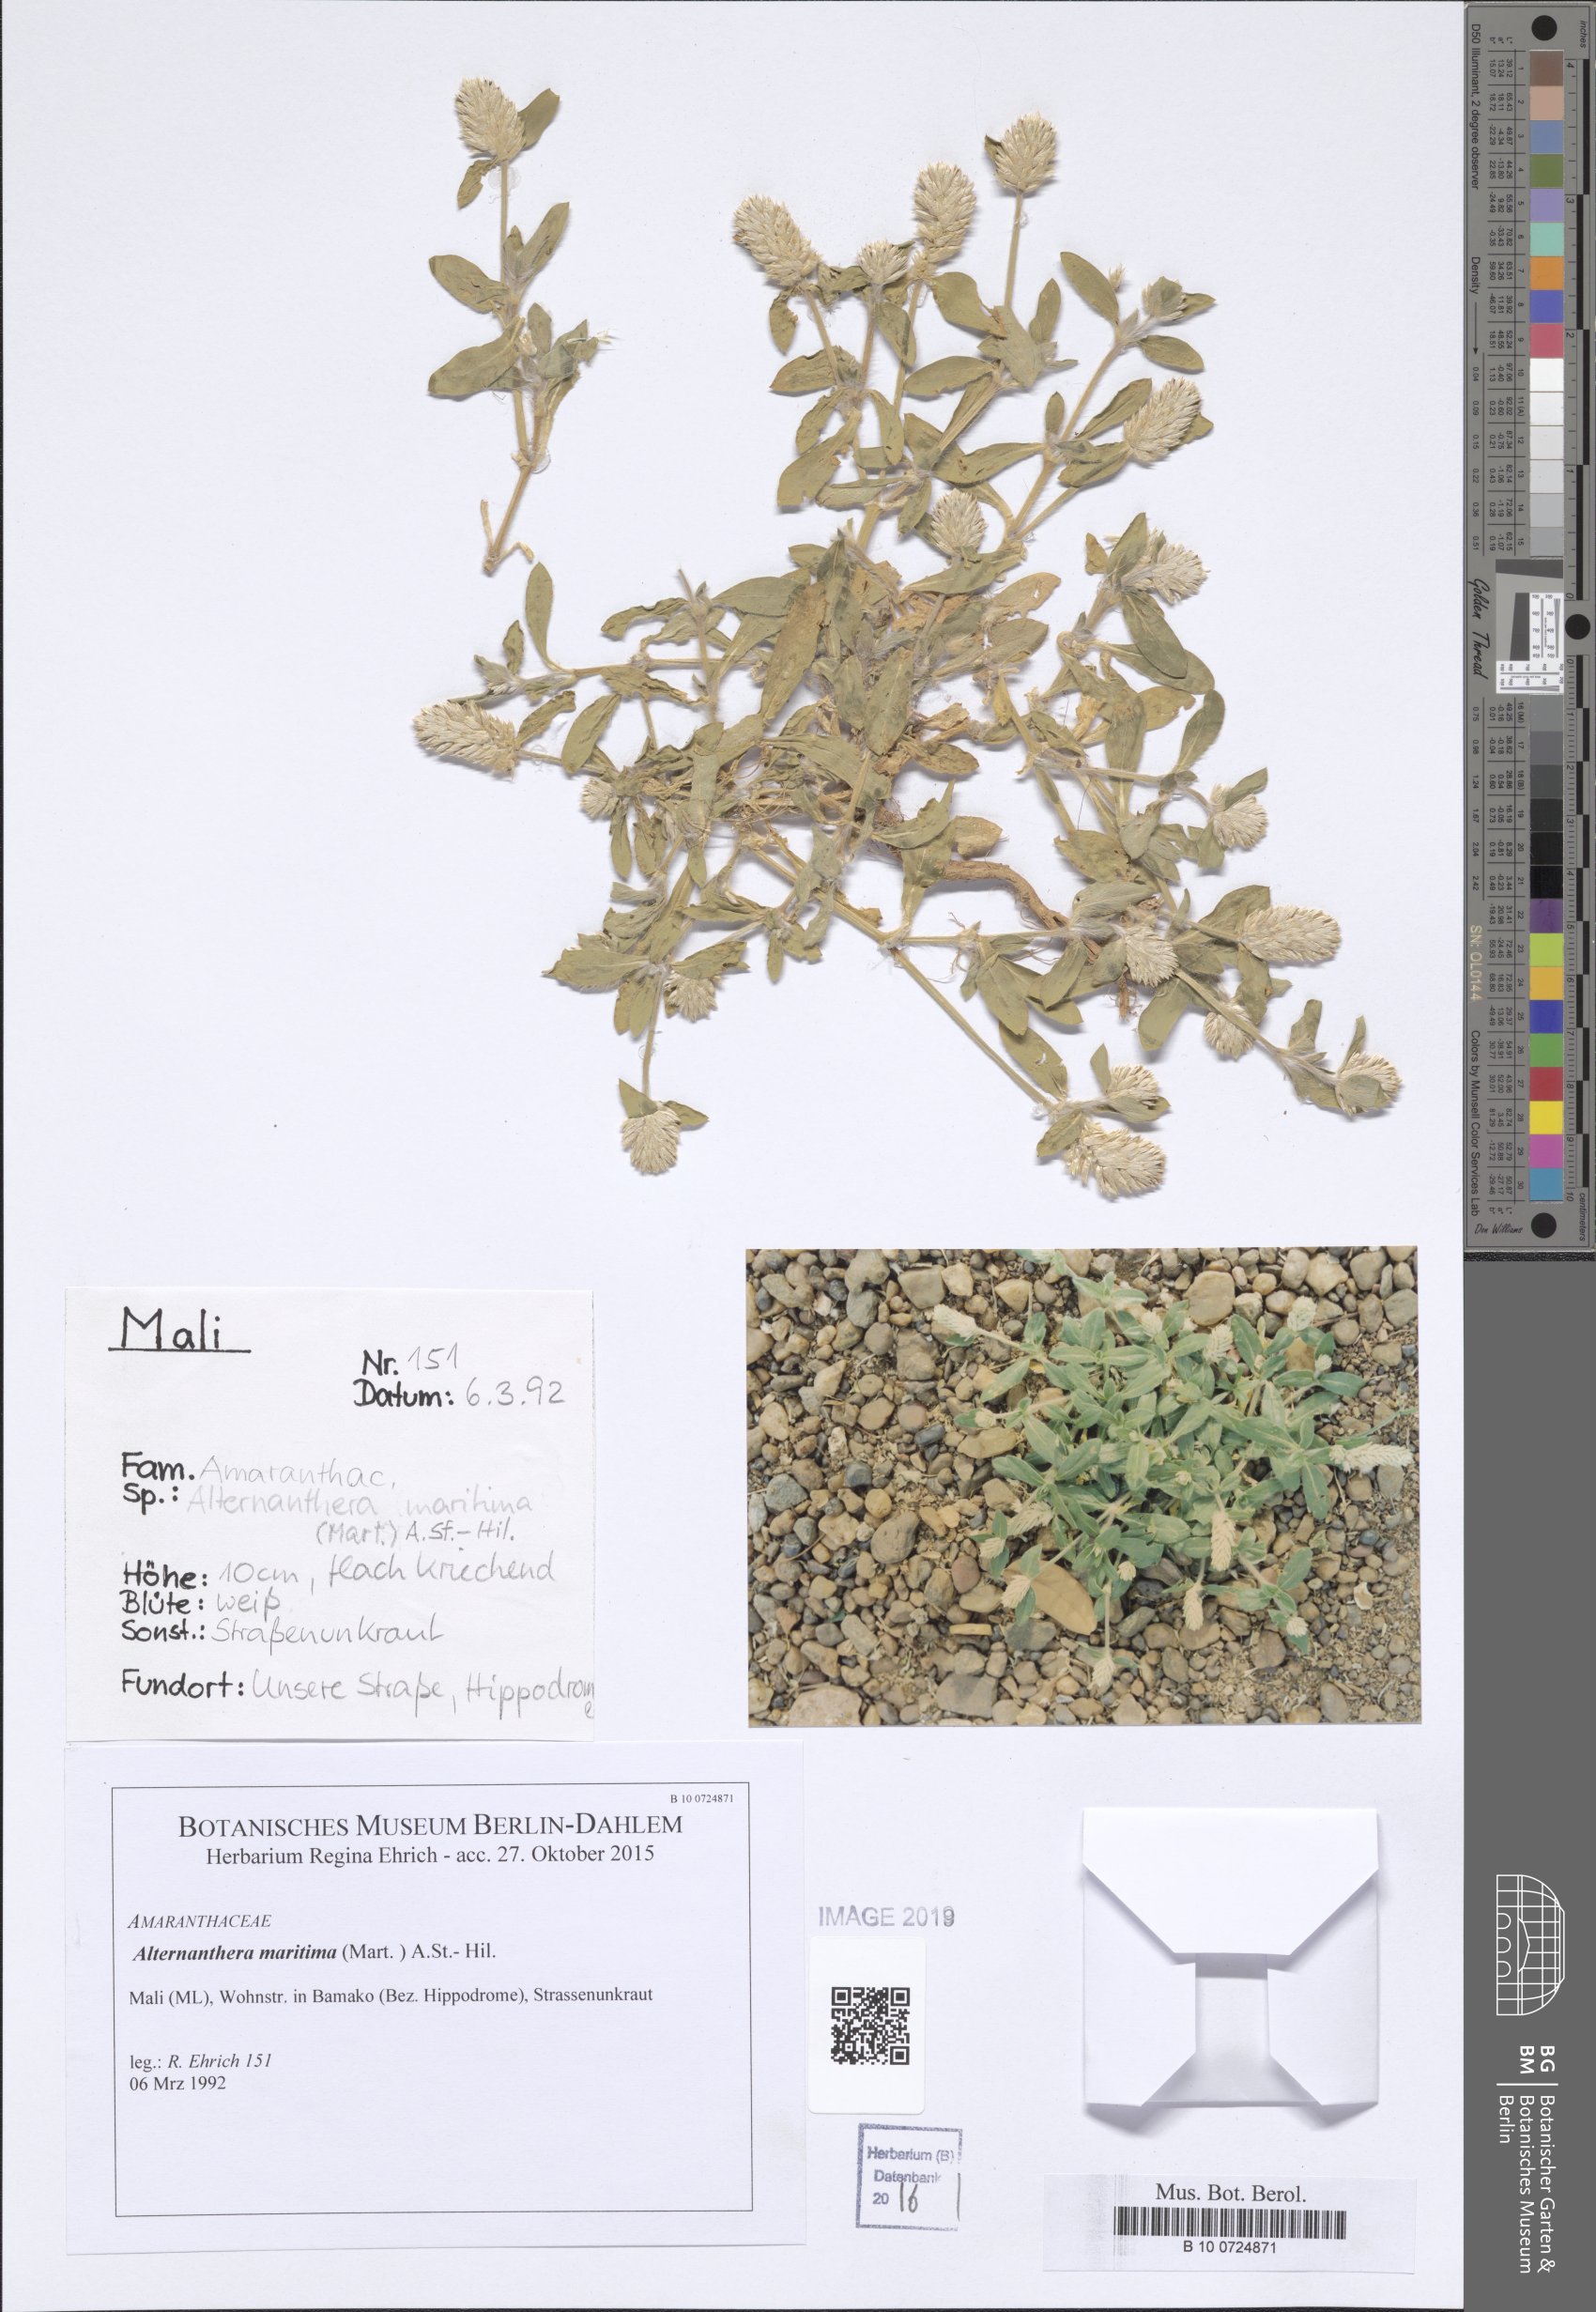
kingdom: Plantae
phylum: Tracheophyta
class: Magnoliopsida
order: Caryophyllales
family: Amaranthaceae
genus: Alternanthera
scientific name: Alternanthera littoralis
